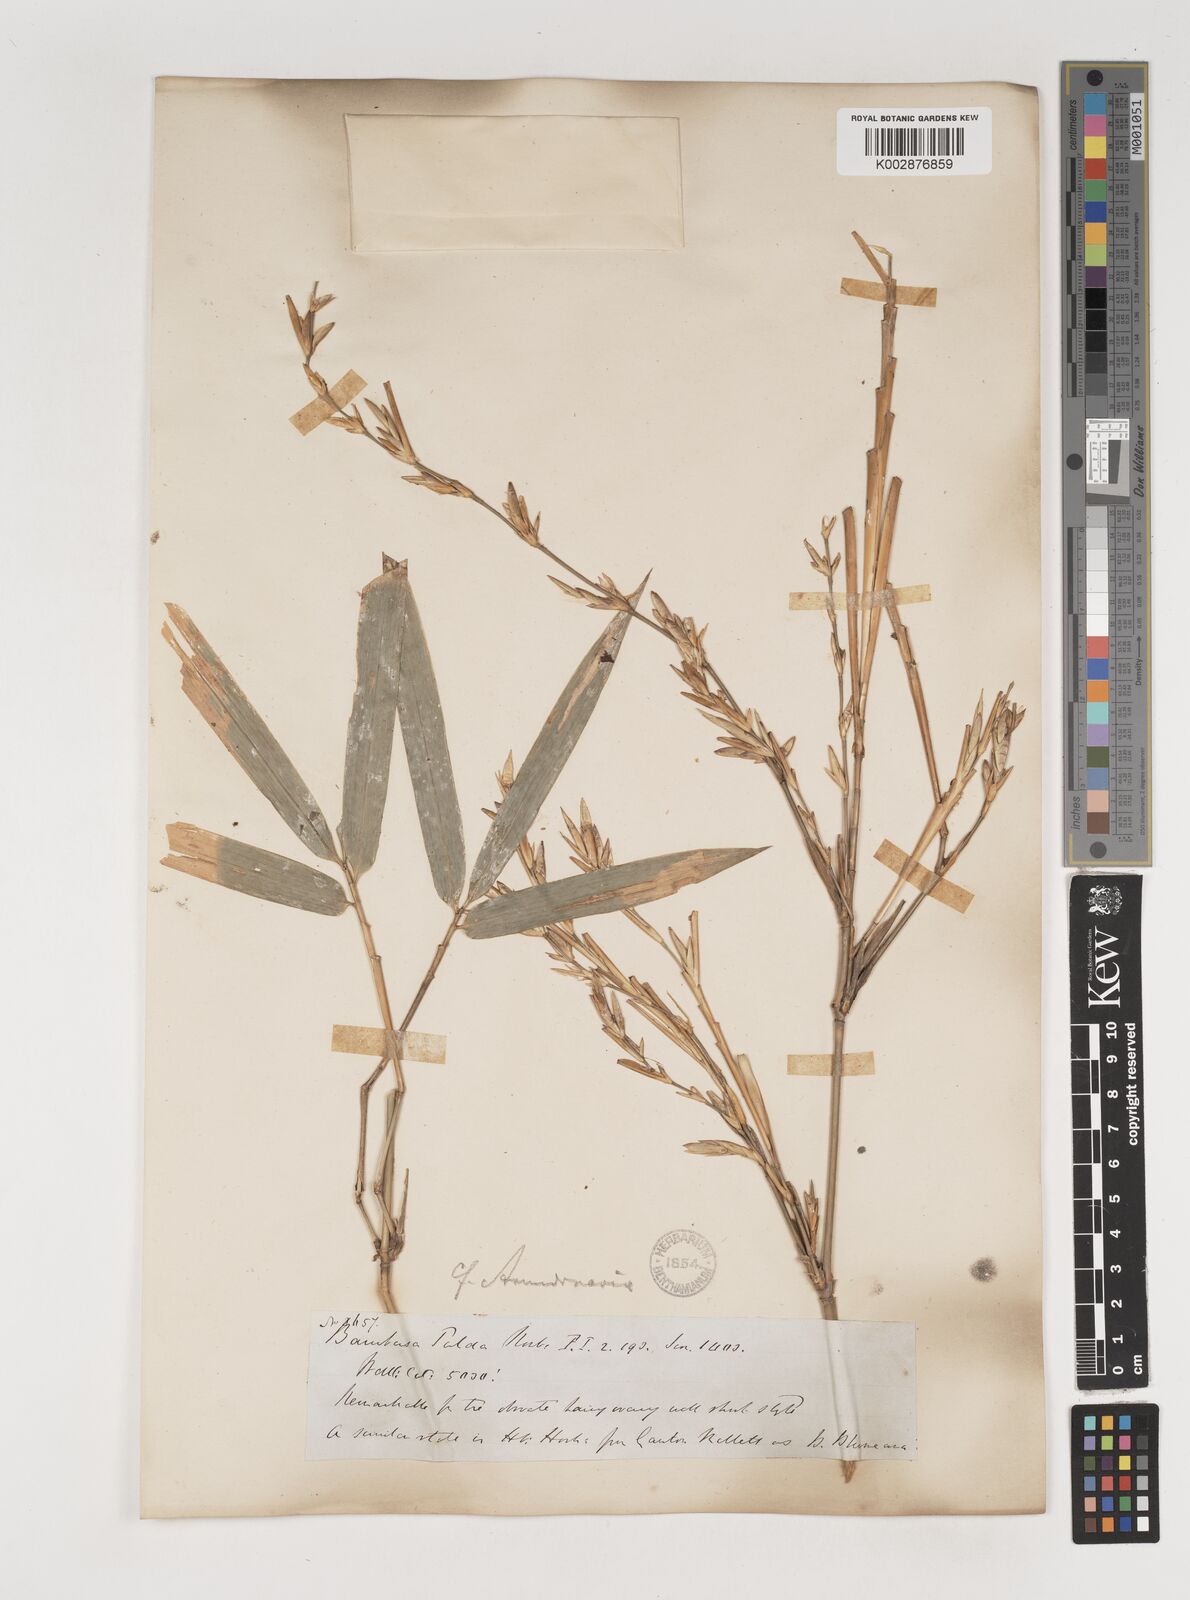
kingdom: Plantae
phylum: Tracheophyta
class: Liliopsida
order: Poales
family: Poaceae
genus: Bambusa
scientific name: Bambusa tulda
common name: Bengal bamboo
